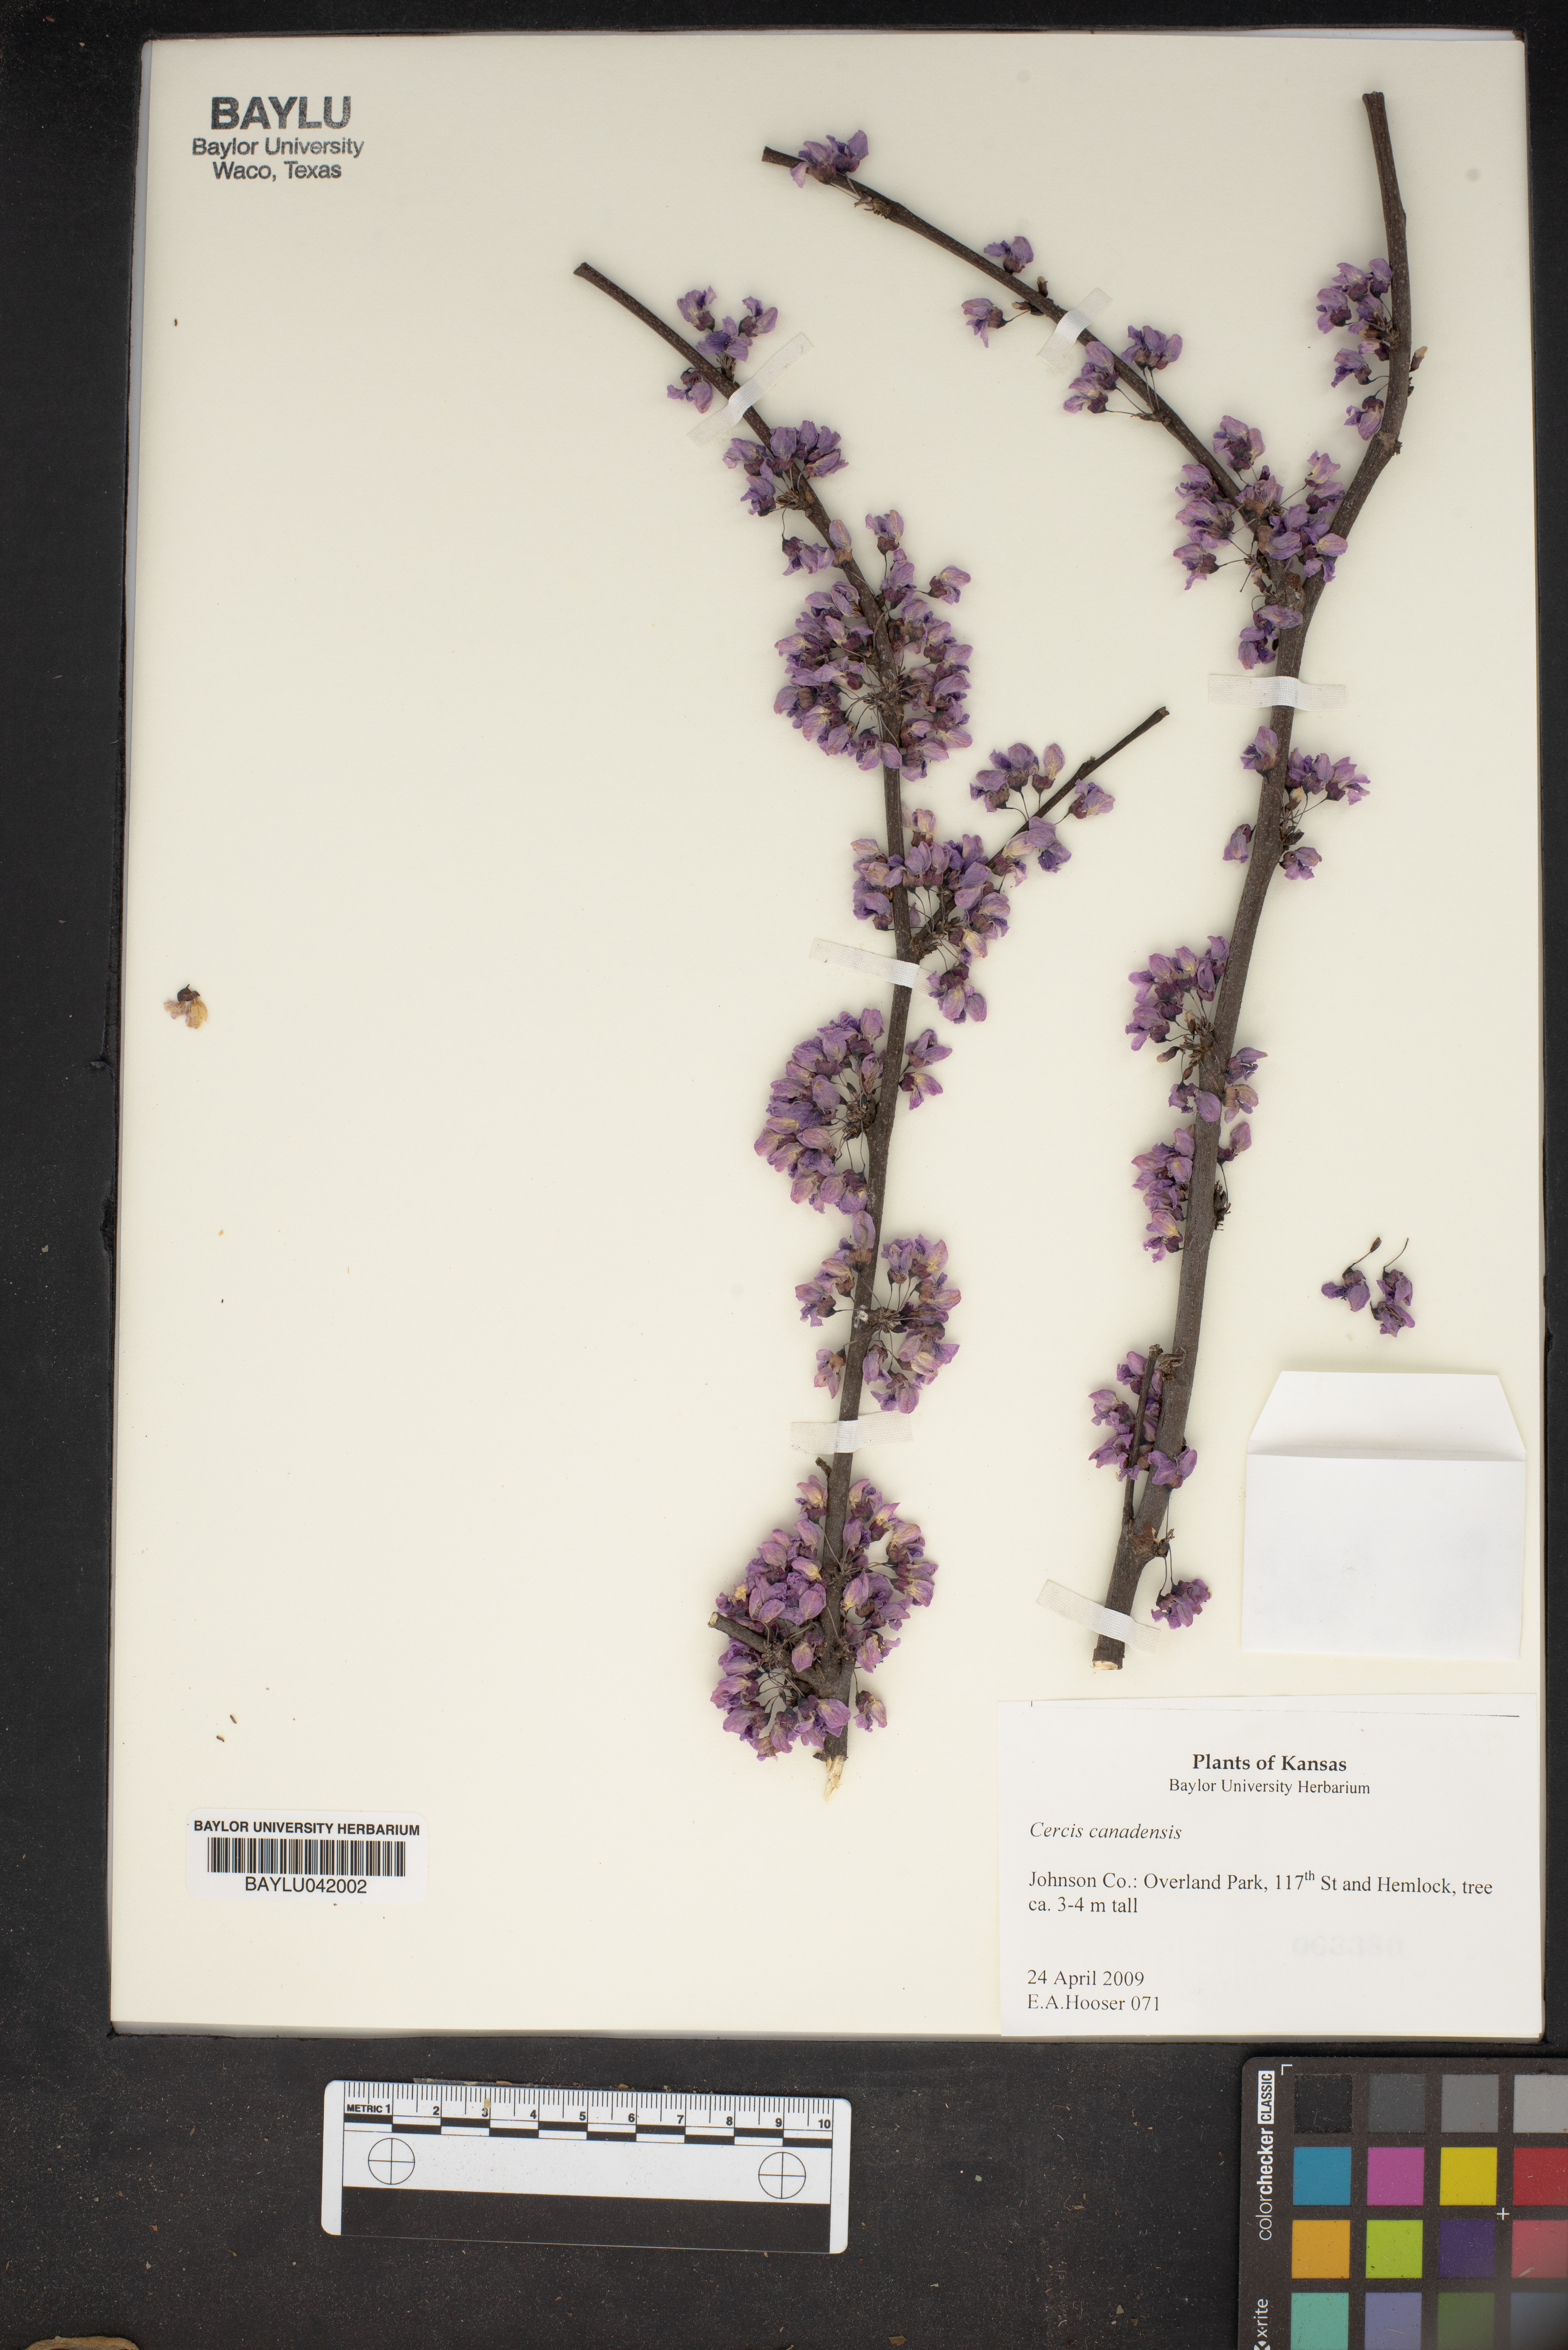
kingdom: Plantae
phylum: Tracheophyta
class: Magnoliopsida
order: Fabales
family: Fabaceae
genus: Cercis
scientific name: Cercis canadensis
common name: Eastern redbud
